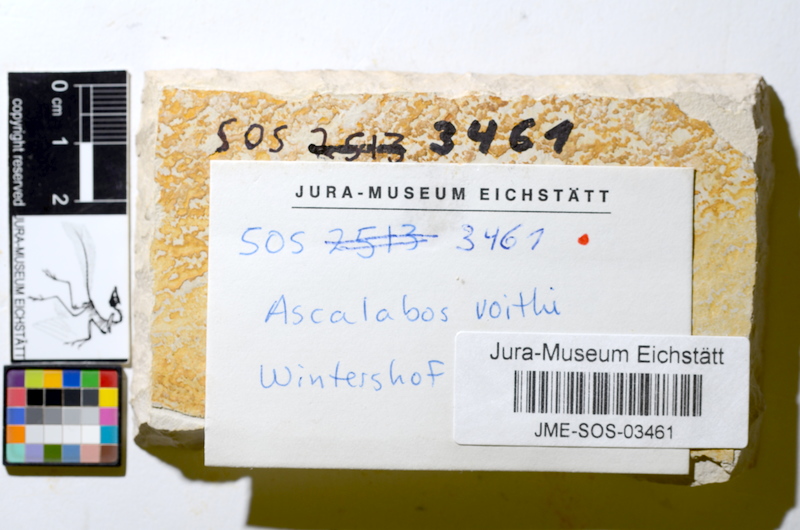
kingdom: Animalia
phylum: Chordata
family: Ascalaboidae
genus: Ascalabos
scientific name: Ascalabos voithii
